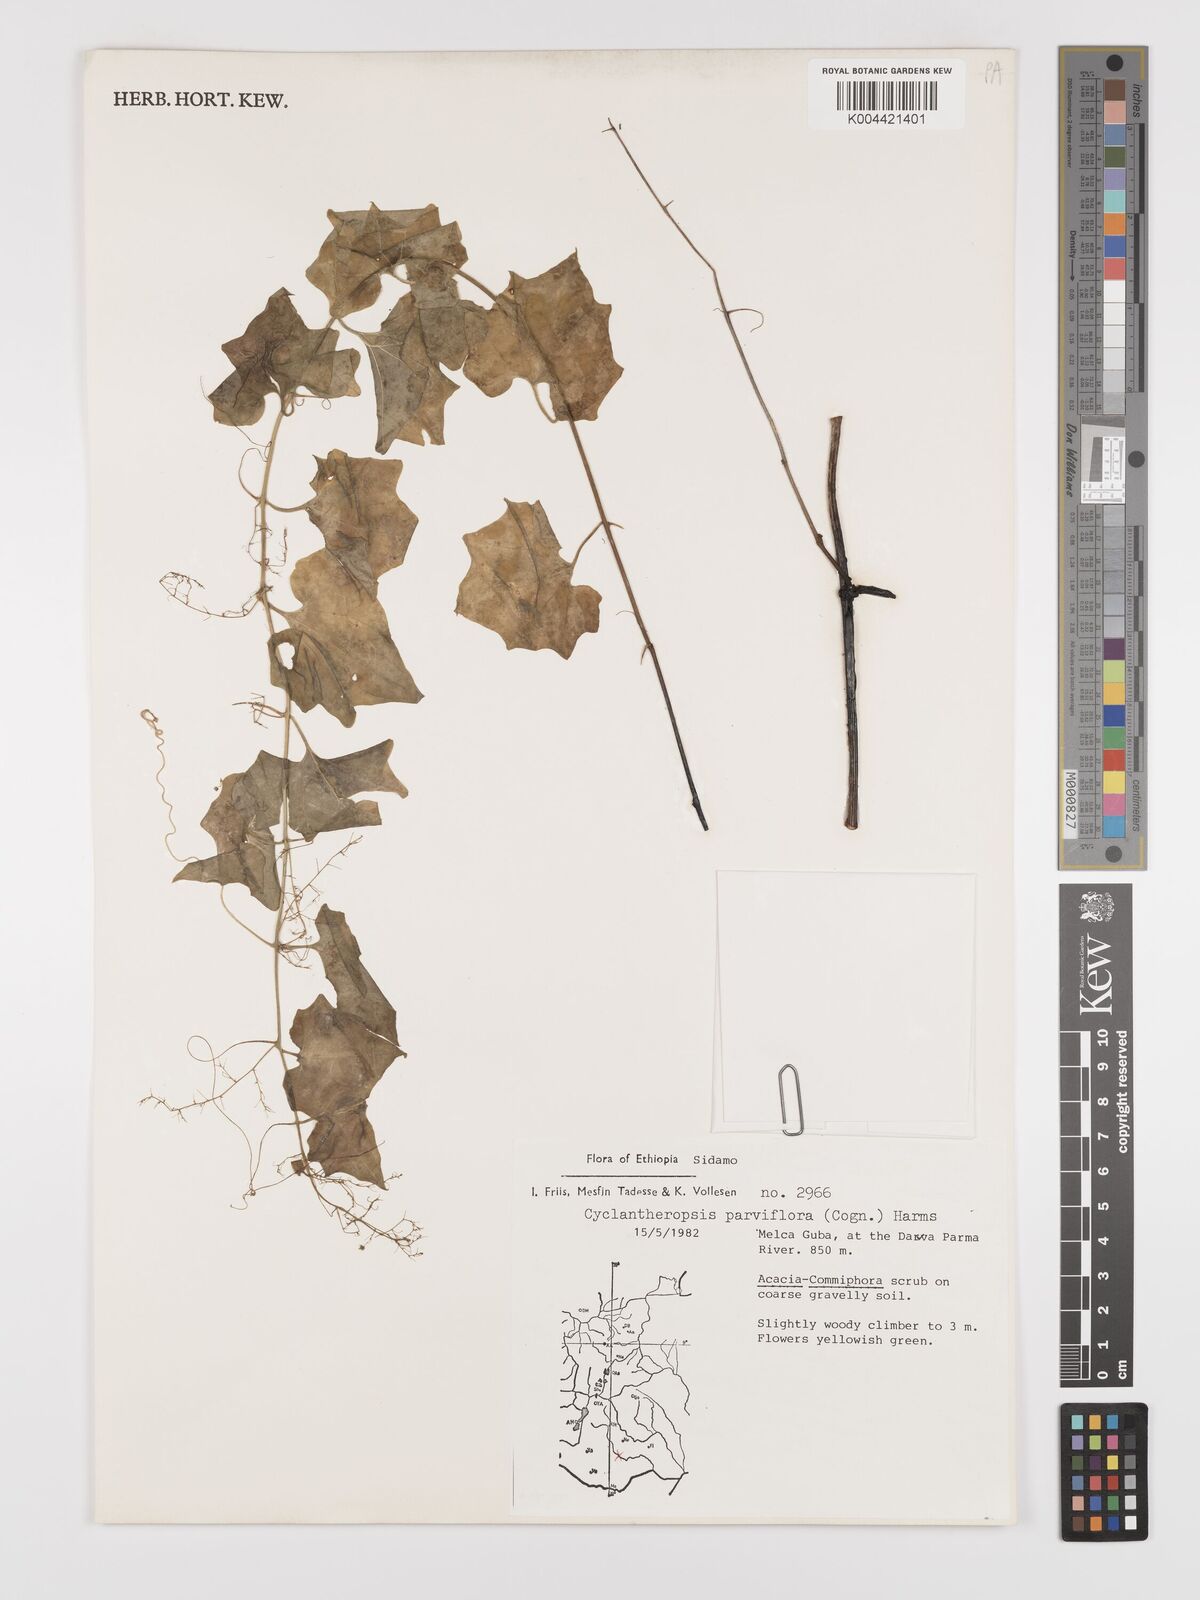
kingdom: Plantae
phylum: Tracheophyta
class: Magnoliopsida
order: Cucurbitales
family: Cucurbitaceae
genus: Cyclantheropsis
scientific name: Cyclantheropsis parviflora
